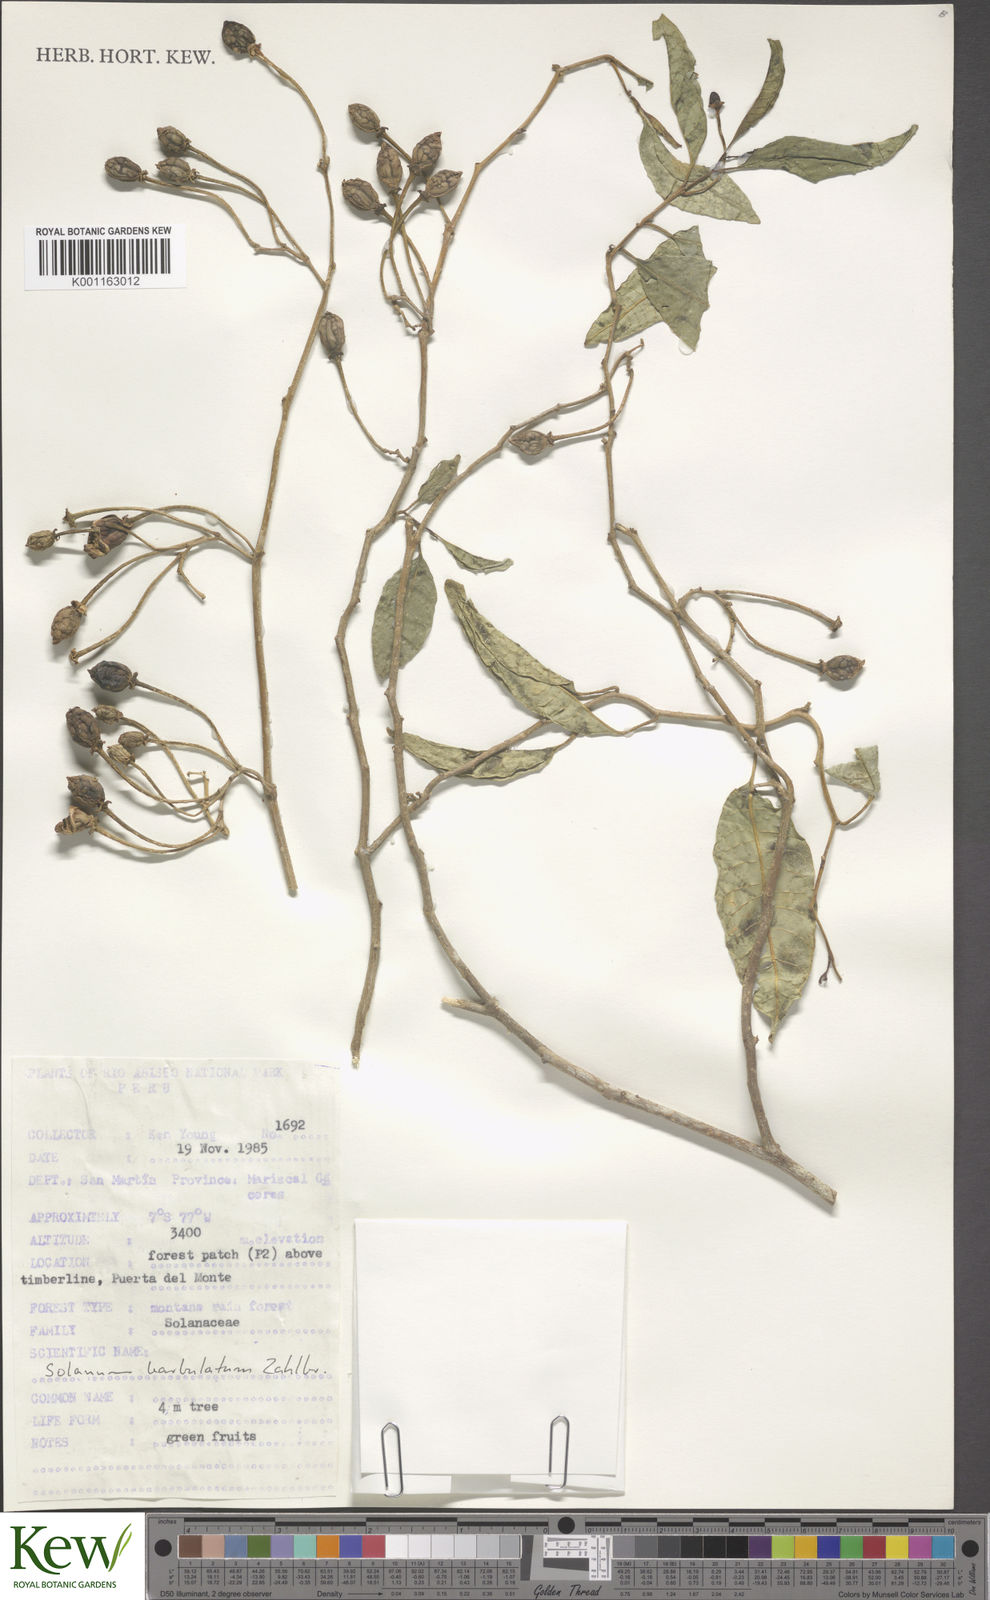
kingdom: Plantae
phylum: Tracheophyta
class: Magnoliopsida
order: Solanales
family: Solanaceae
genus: Solanum
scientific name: Solanum barbulatum
